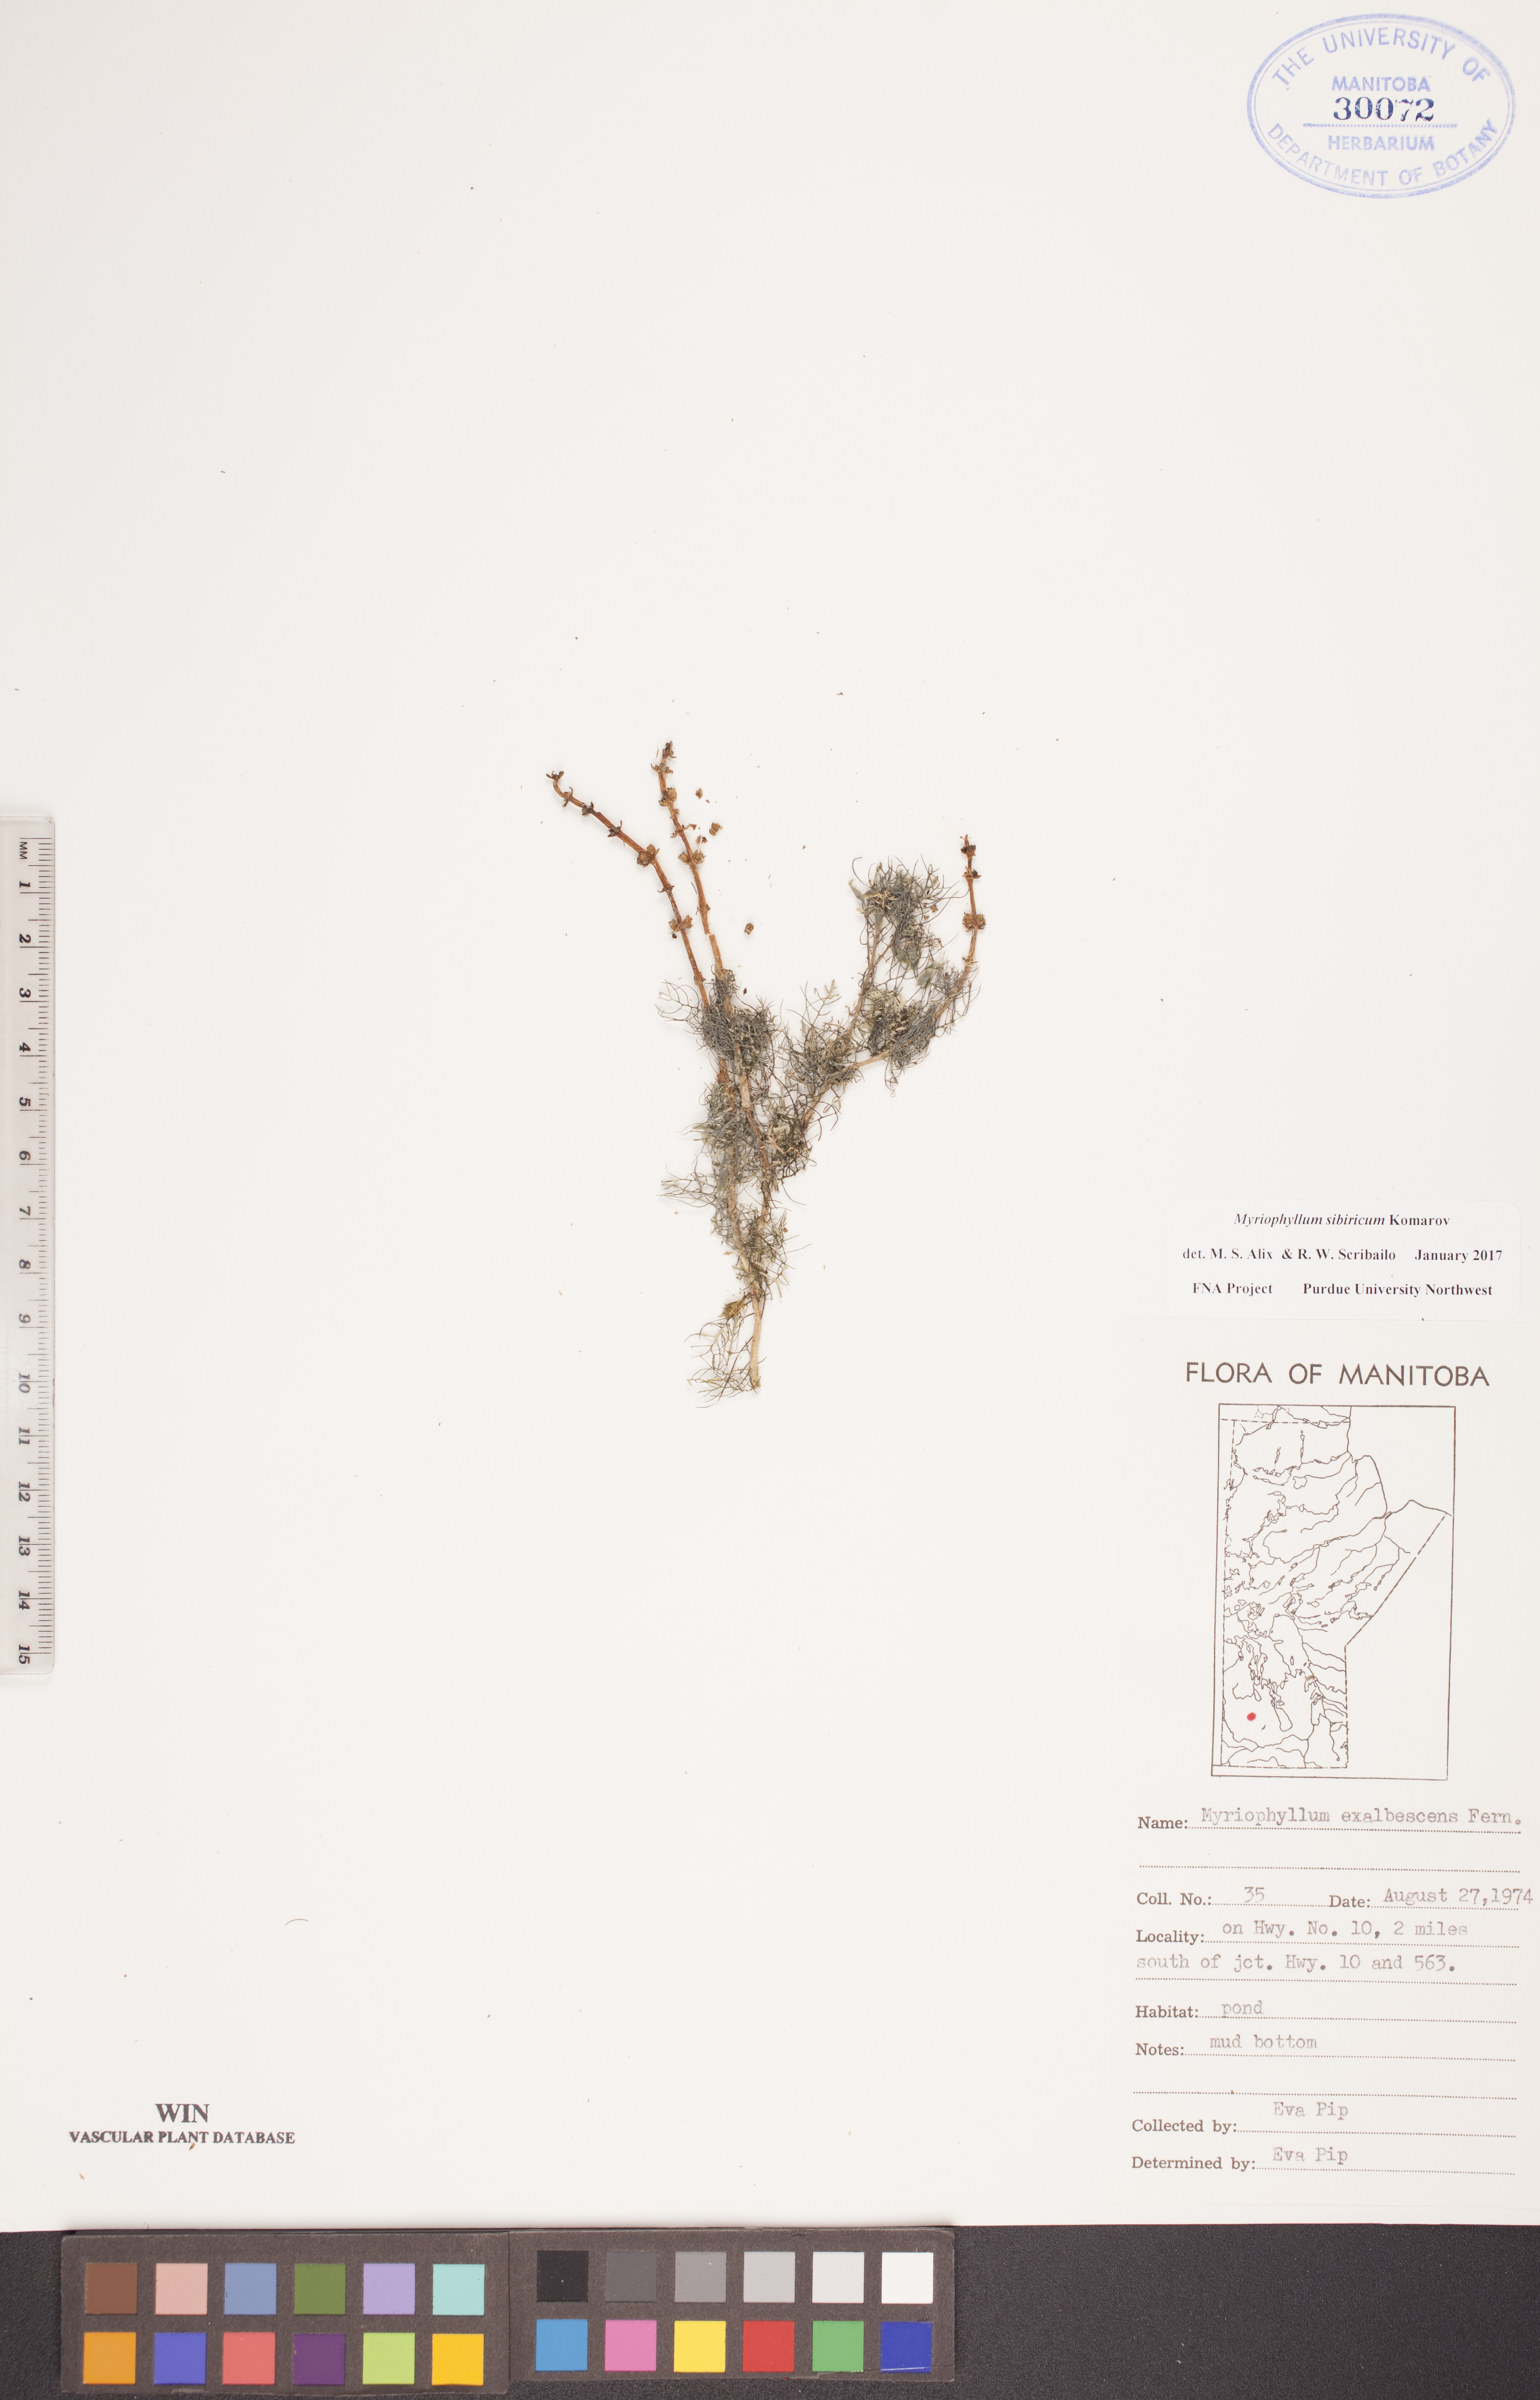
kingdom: Plantae
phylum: Tracheophyta
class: Magnoliopsida
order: Saxifragales
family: Haloragaceae
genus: Myriophyllum
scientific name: Myriophyllum sibiricum
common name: Siberian water-milfoil
